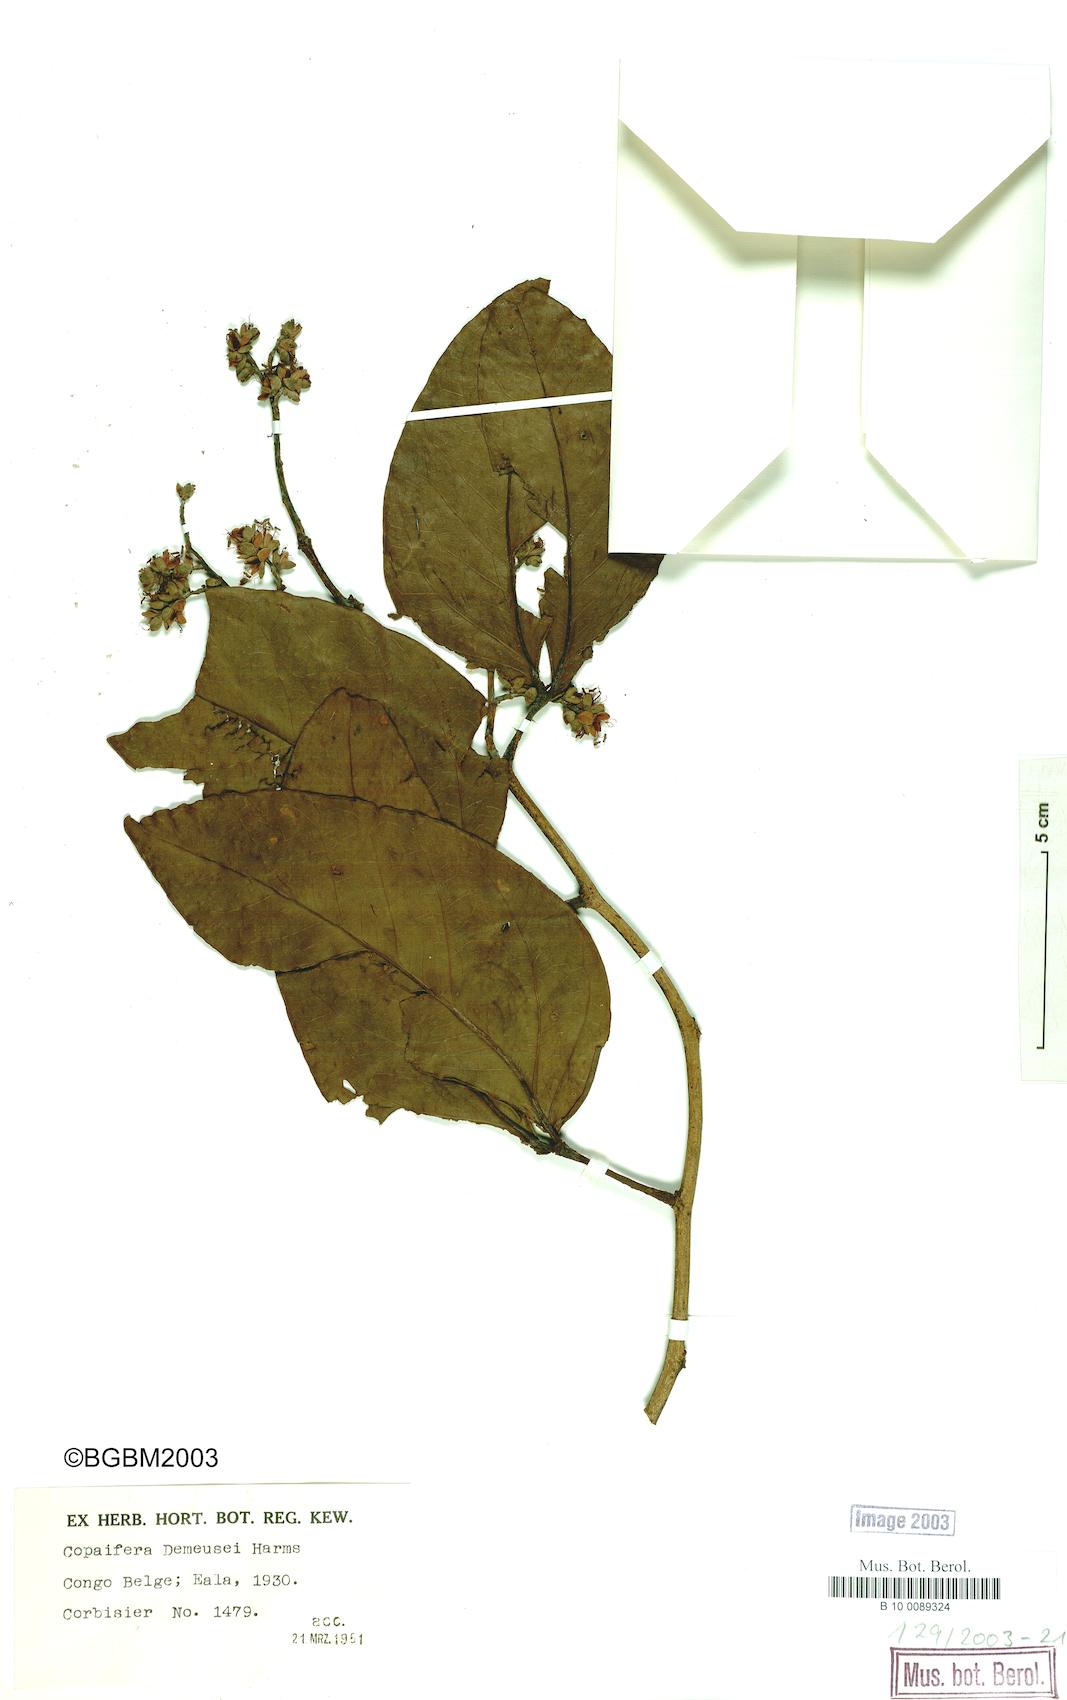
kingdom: Plantae
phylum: Tracheophyta
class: Magnoliopsida
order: Fabales
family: Fabaceae
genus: Guibourtia
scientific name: Guibourtia demeusei
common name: African rosewood
